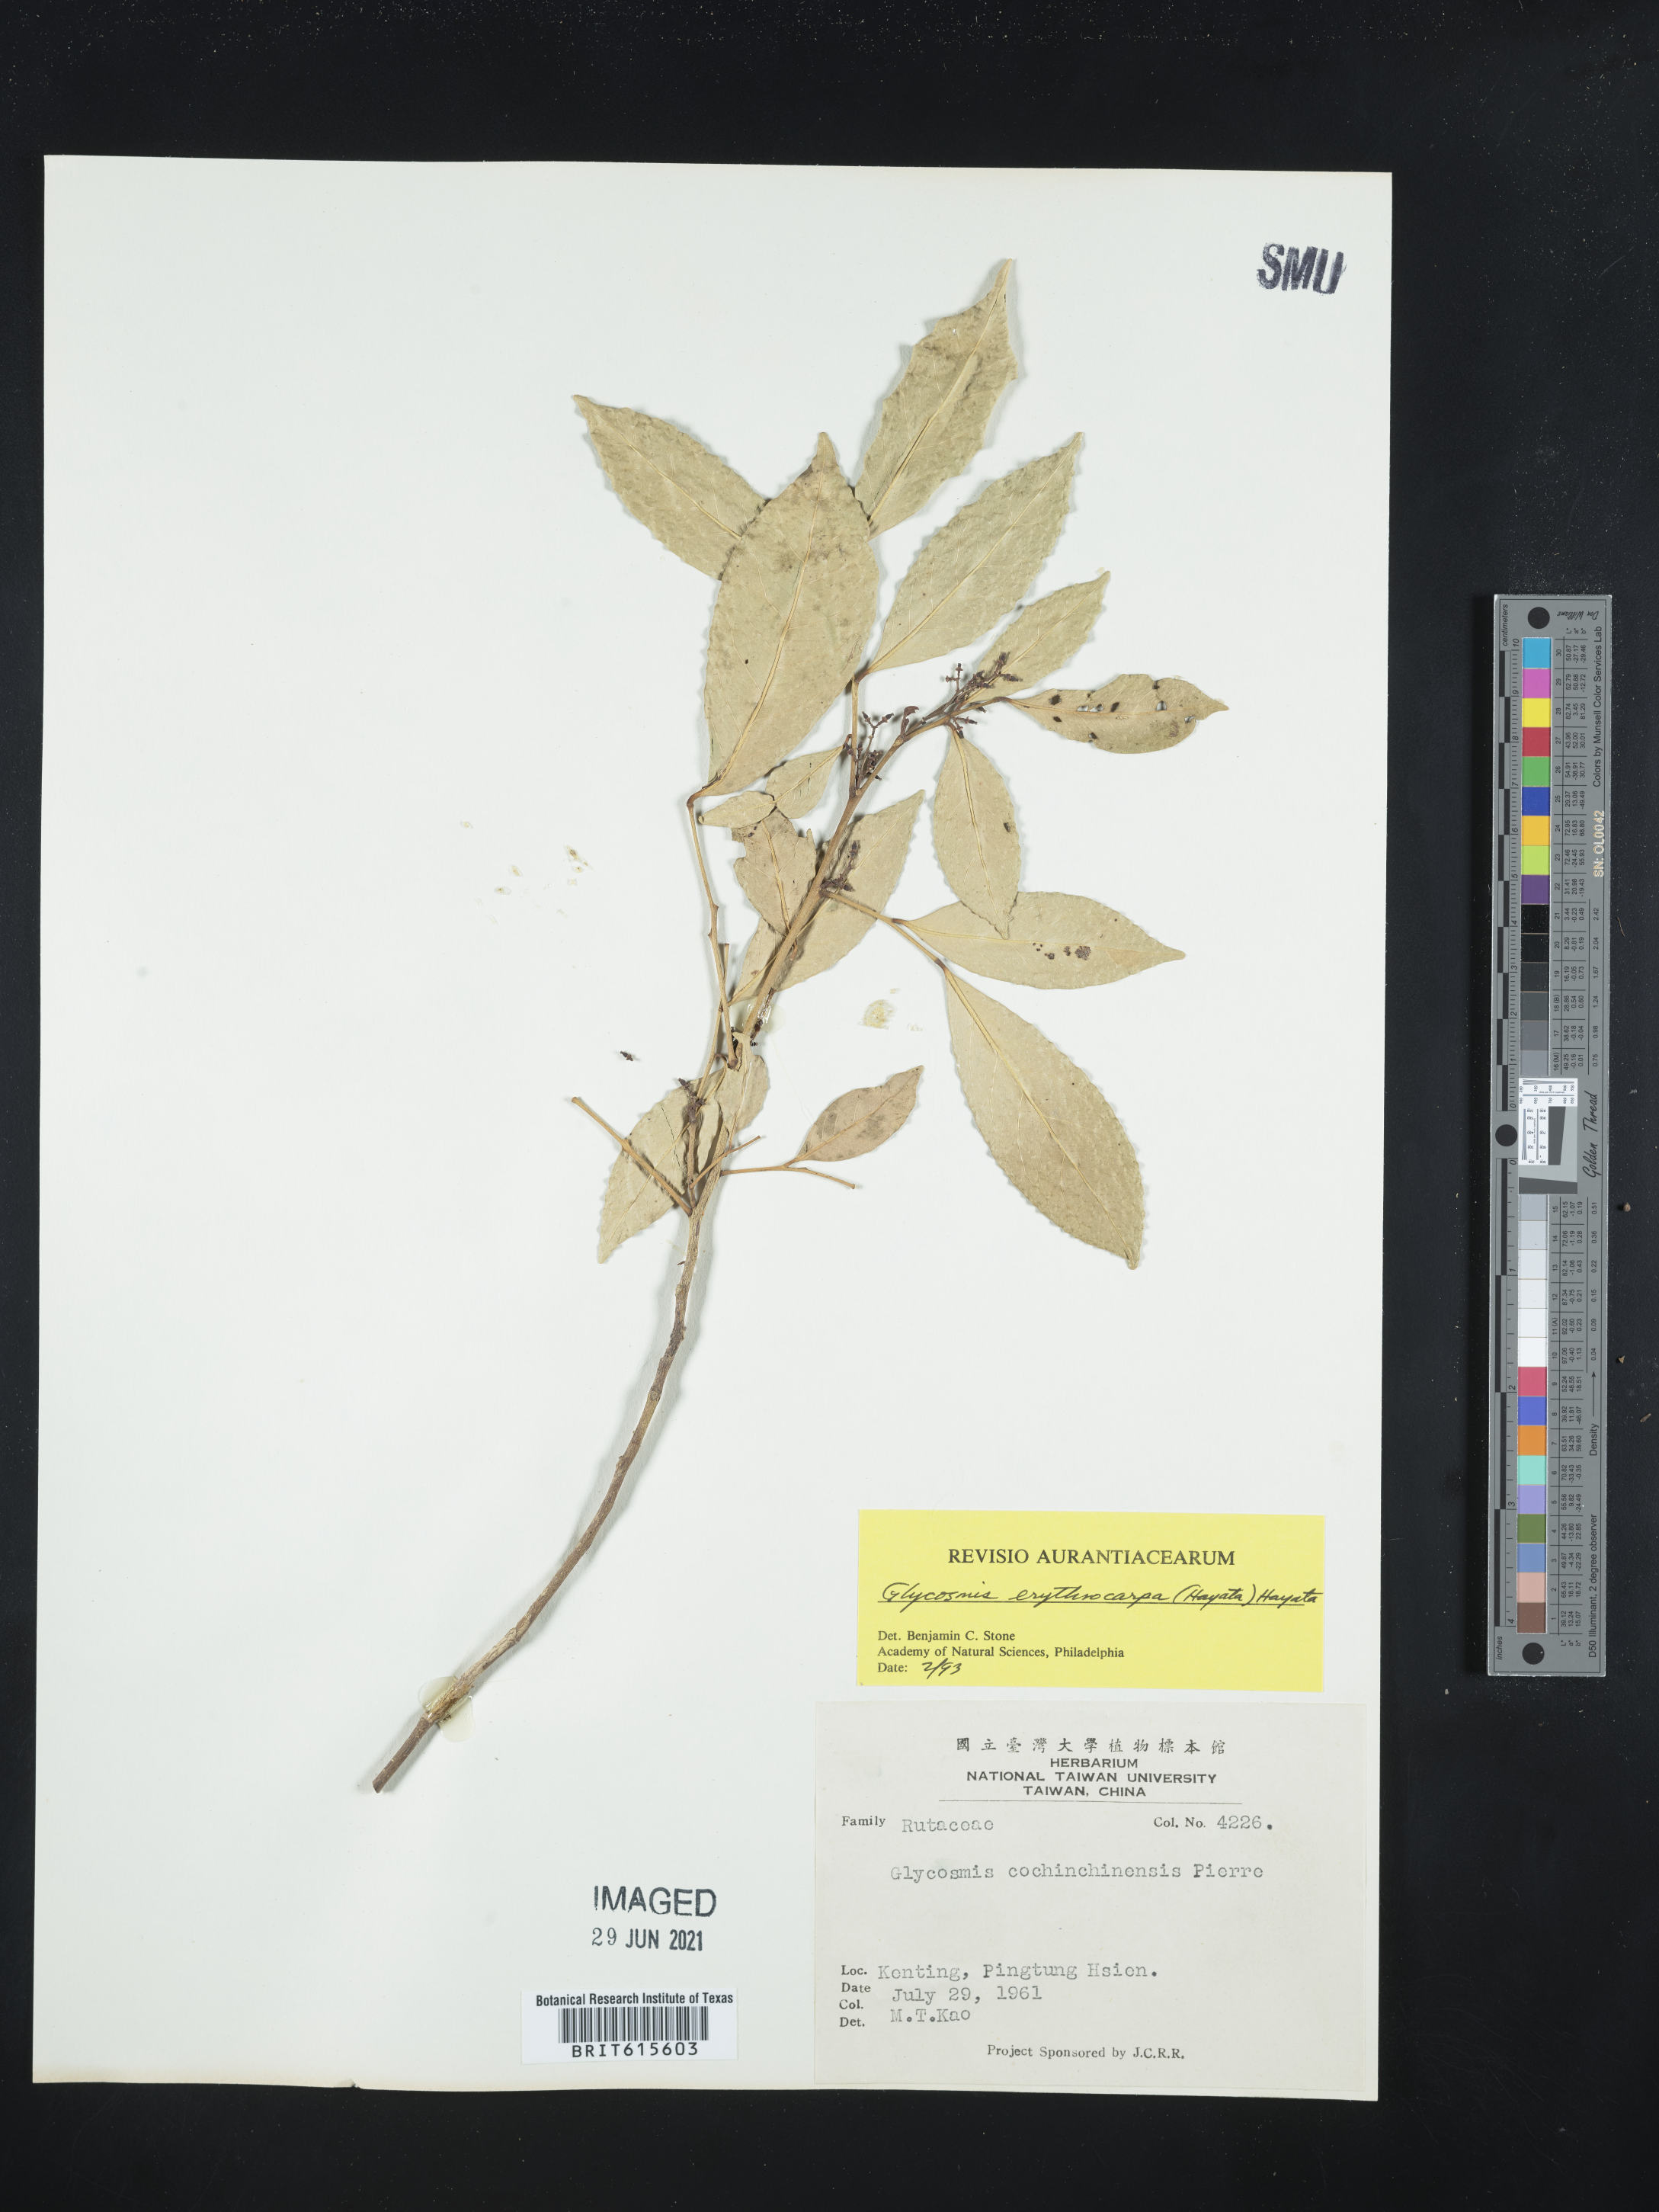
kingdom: Plantae
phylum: Tracheophyta
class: Magnoliopsida
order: Sapindales
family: Rutaceae
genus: Glycosmis
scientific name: Glycosmis erythrocarpa
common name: Red-tangerine
